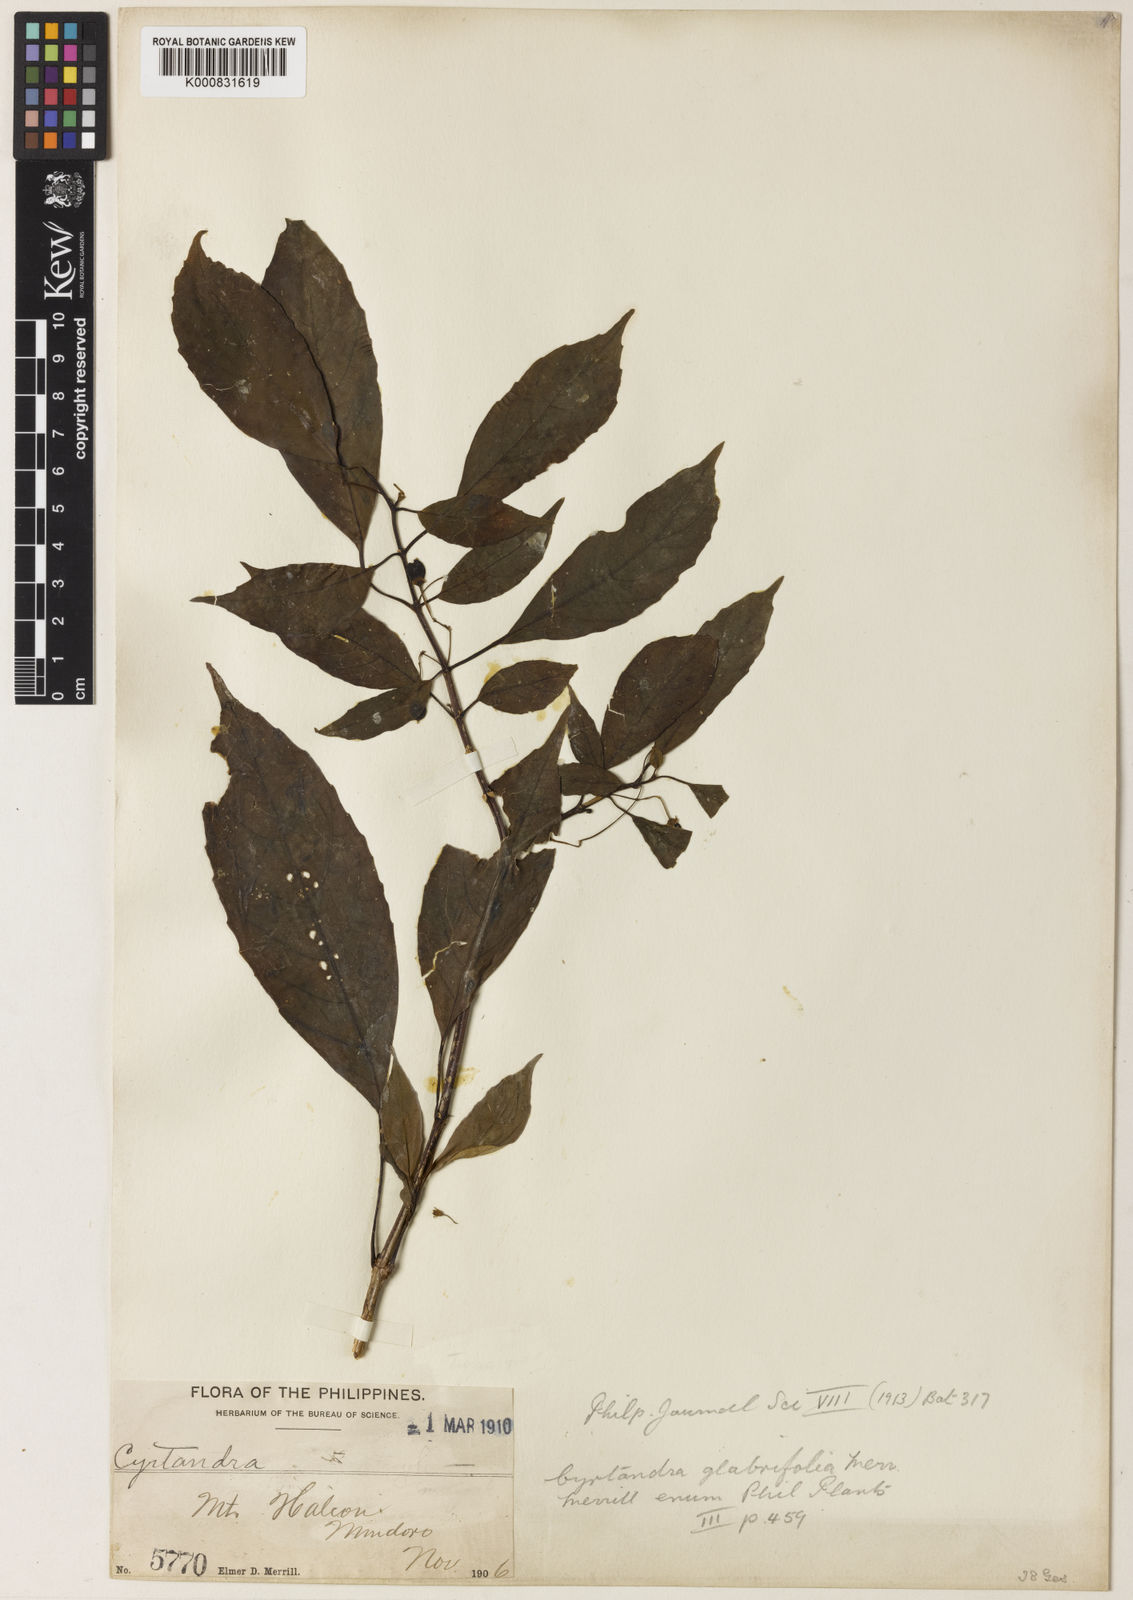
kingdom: Plantae
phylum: Tracheophyta
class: Magnoliopsida
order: Lamiales
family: Gesneriaceae
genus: Cyrtandra
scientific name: Cyrtandra glabrifolia
